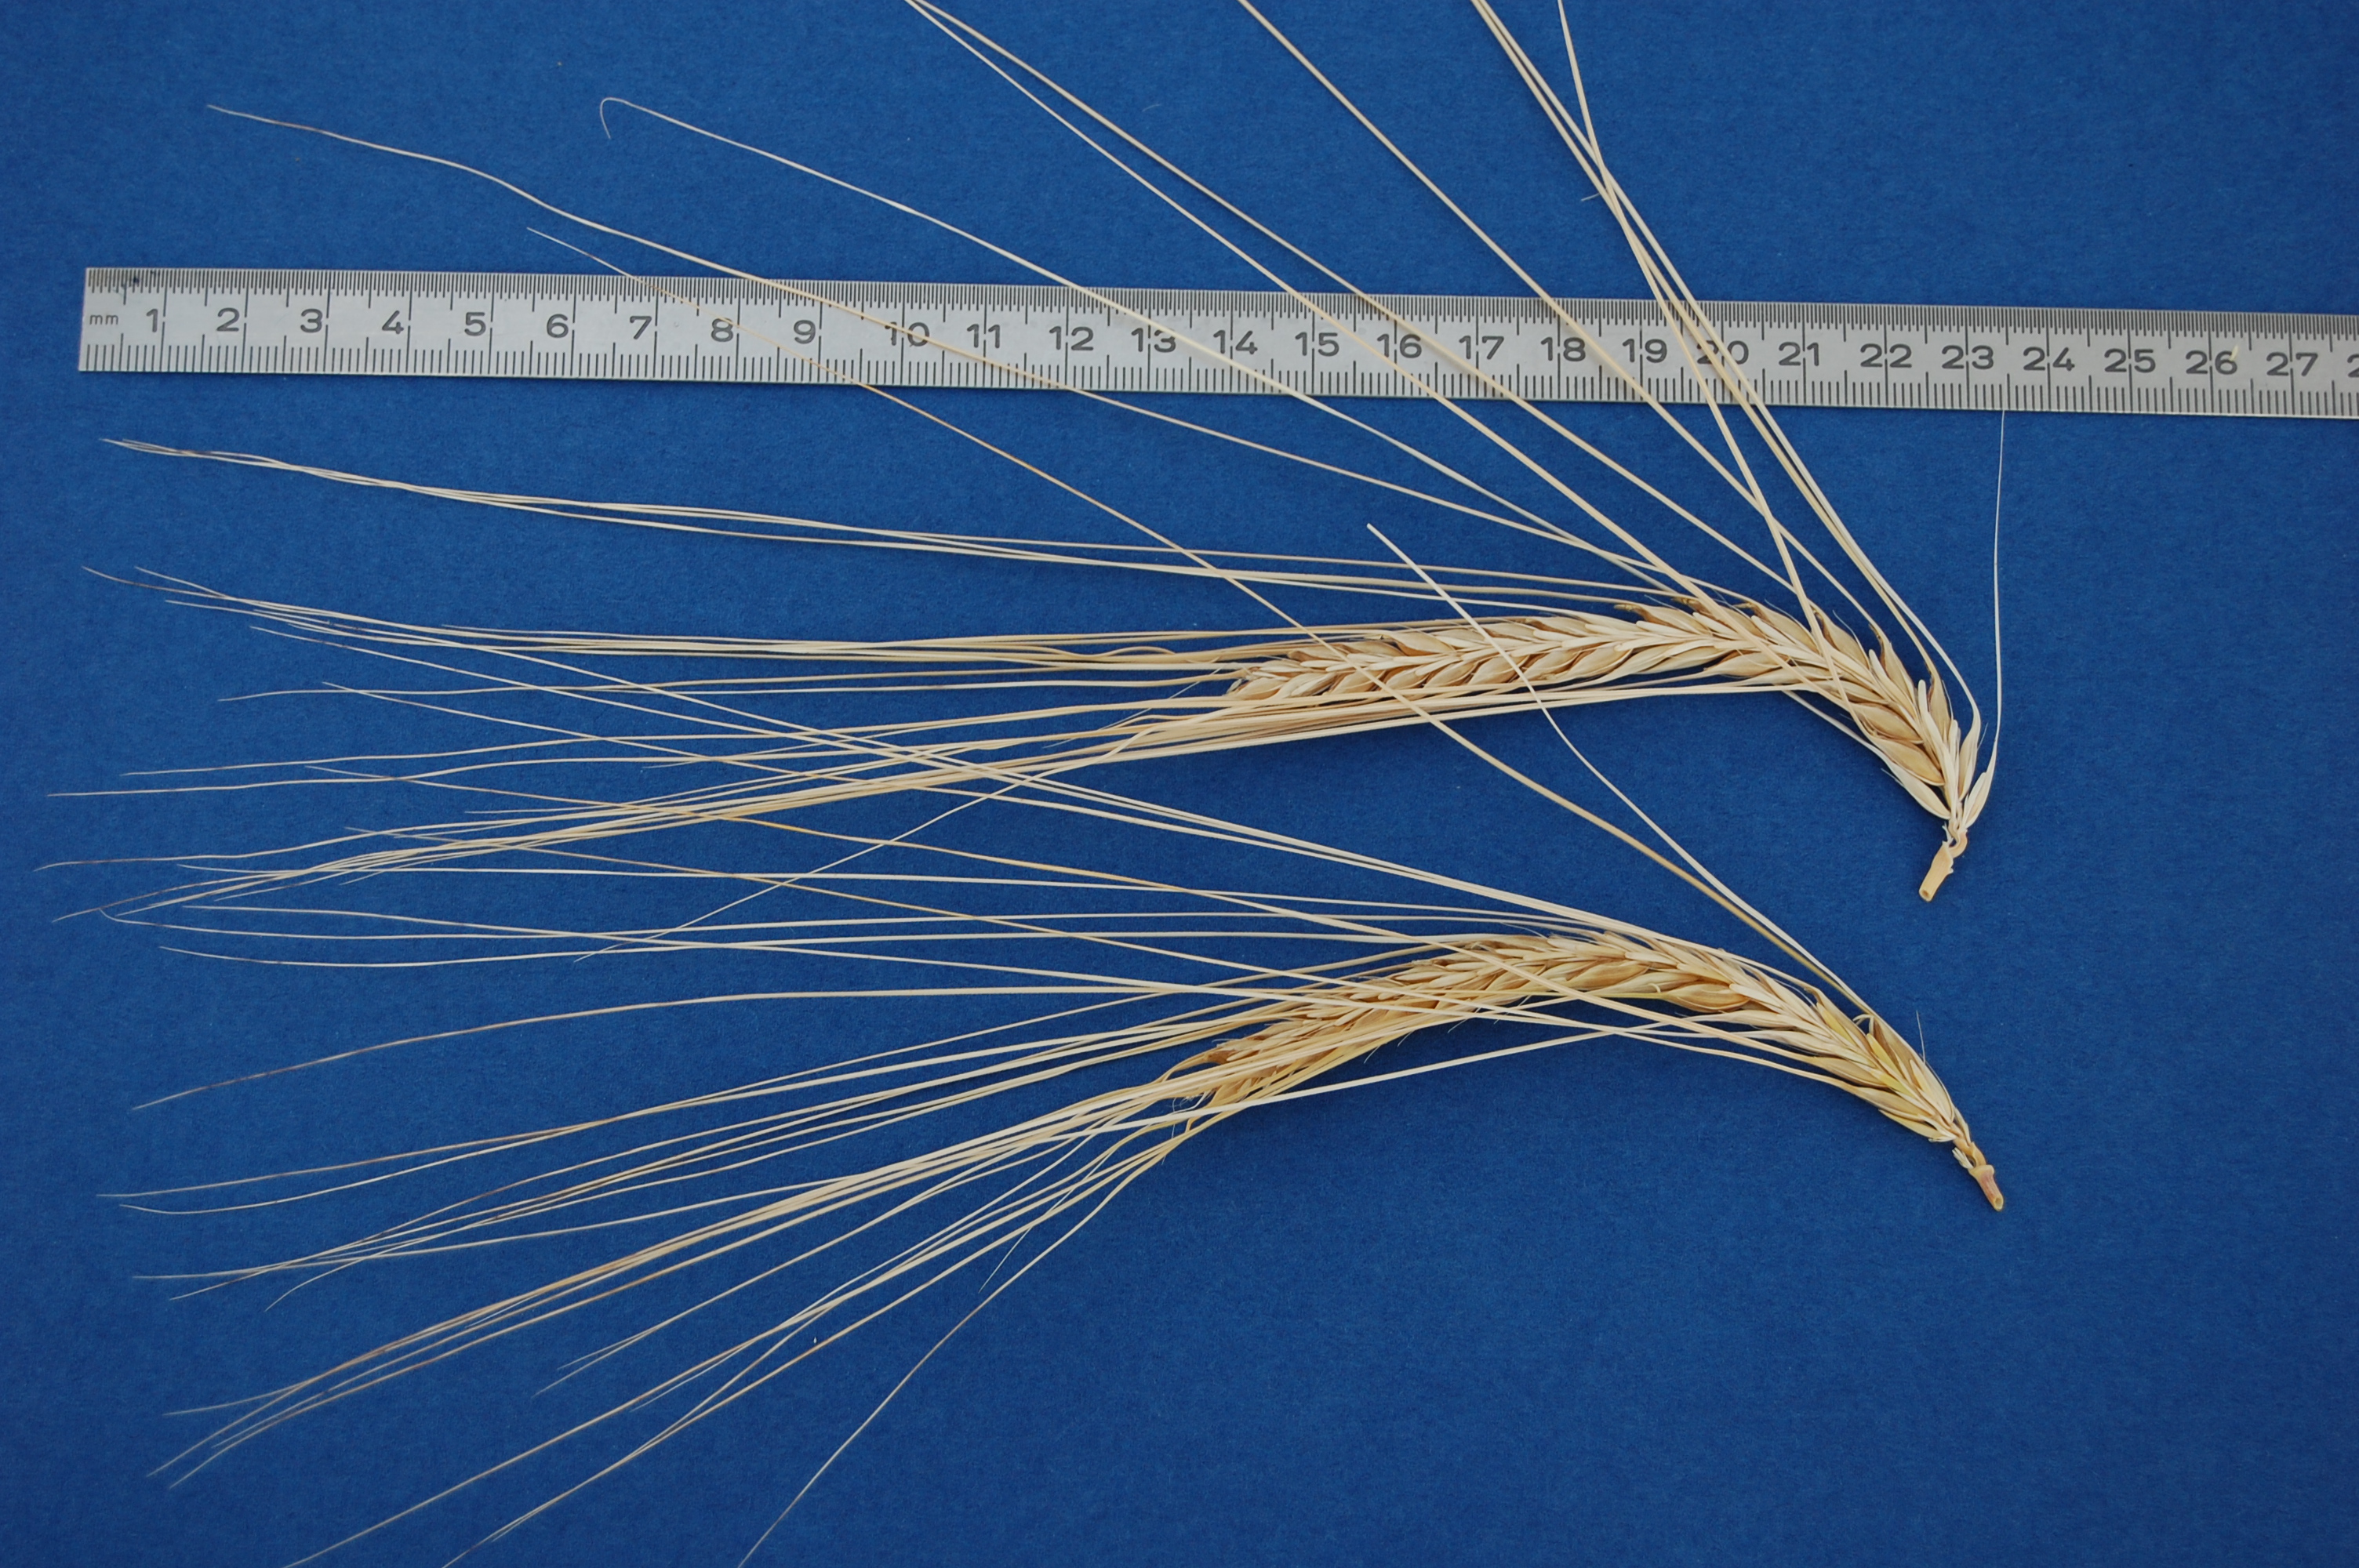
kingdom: Plantae
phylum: Tracheophyta
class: Liliopsida
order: Poales
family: Poaceae
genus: Hordeum
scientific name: Hordeum vulgare
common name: Common barley
